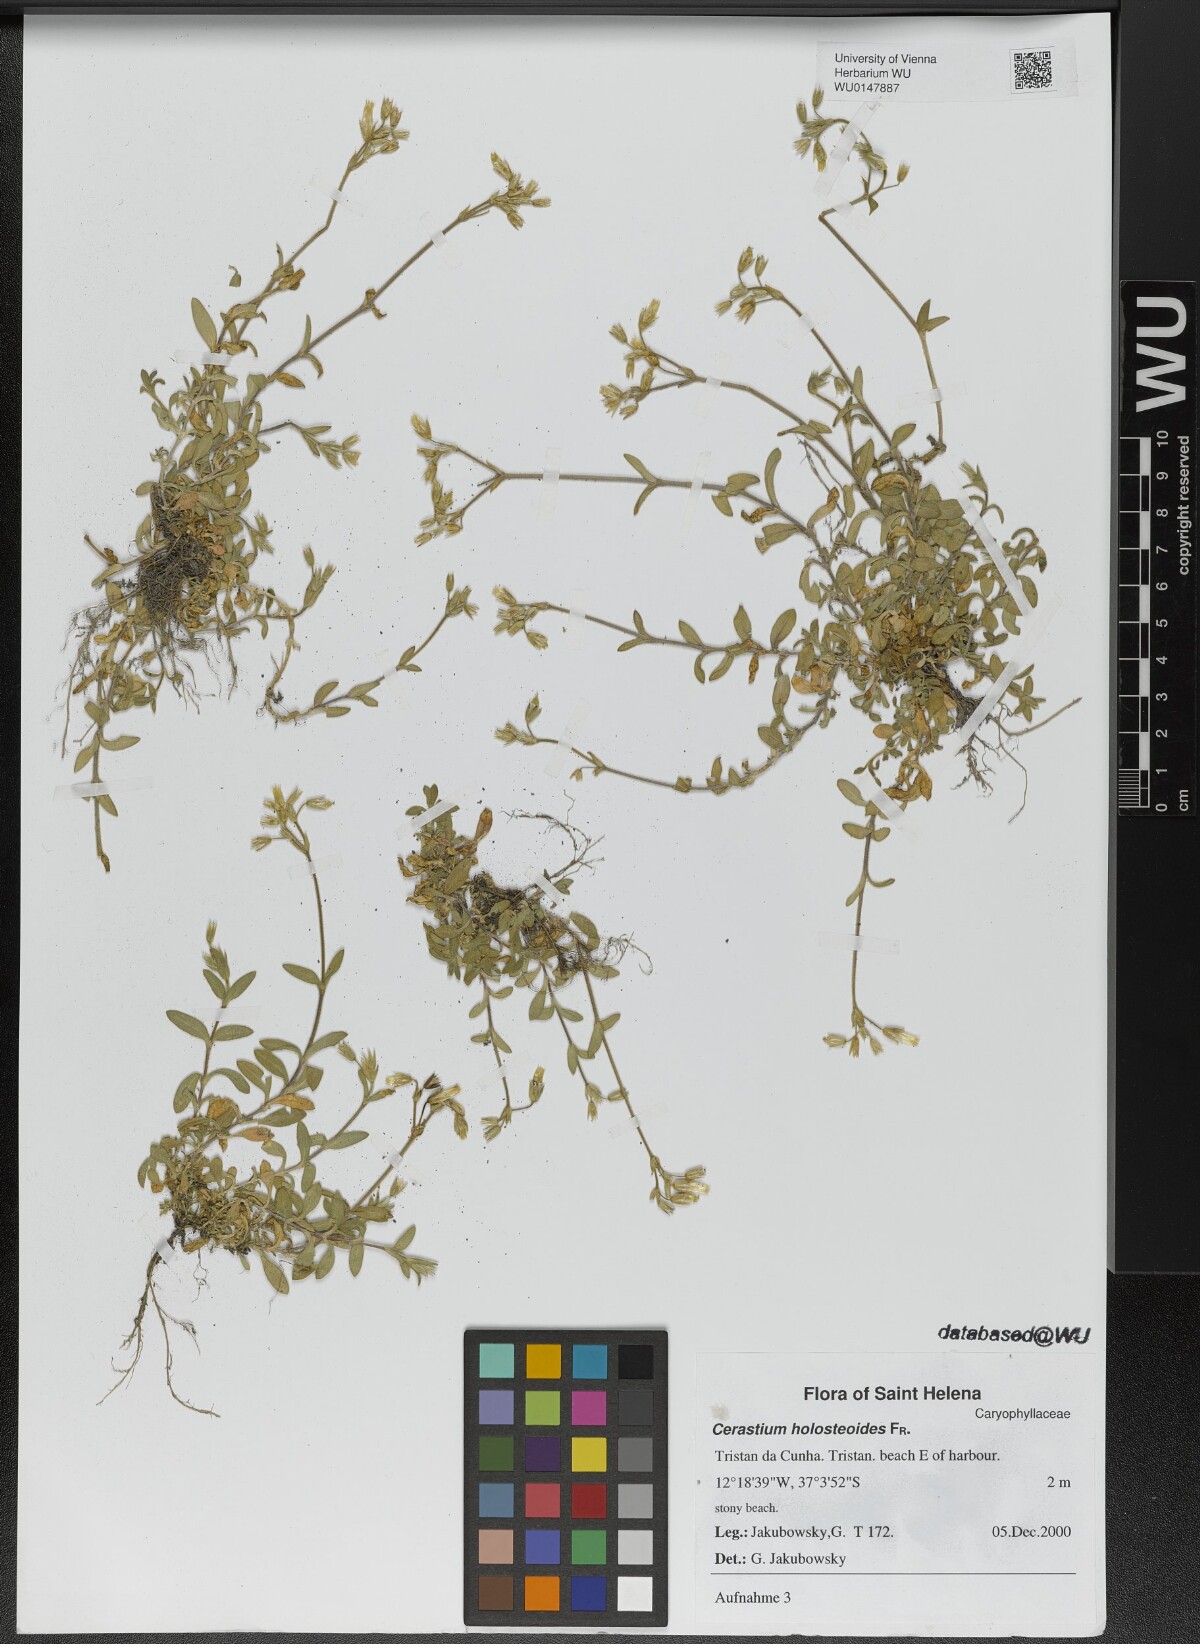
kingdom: Plantae
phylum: Tracheophyta
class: Magnoliopsida
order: Caryophyllales
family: Caryophyllaceae
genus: Cerastium
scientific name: Cerastium holosteoides
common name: Big chickweed
